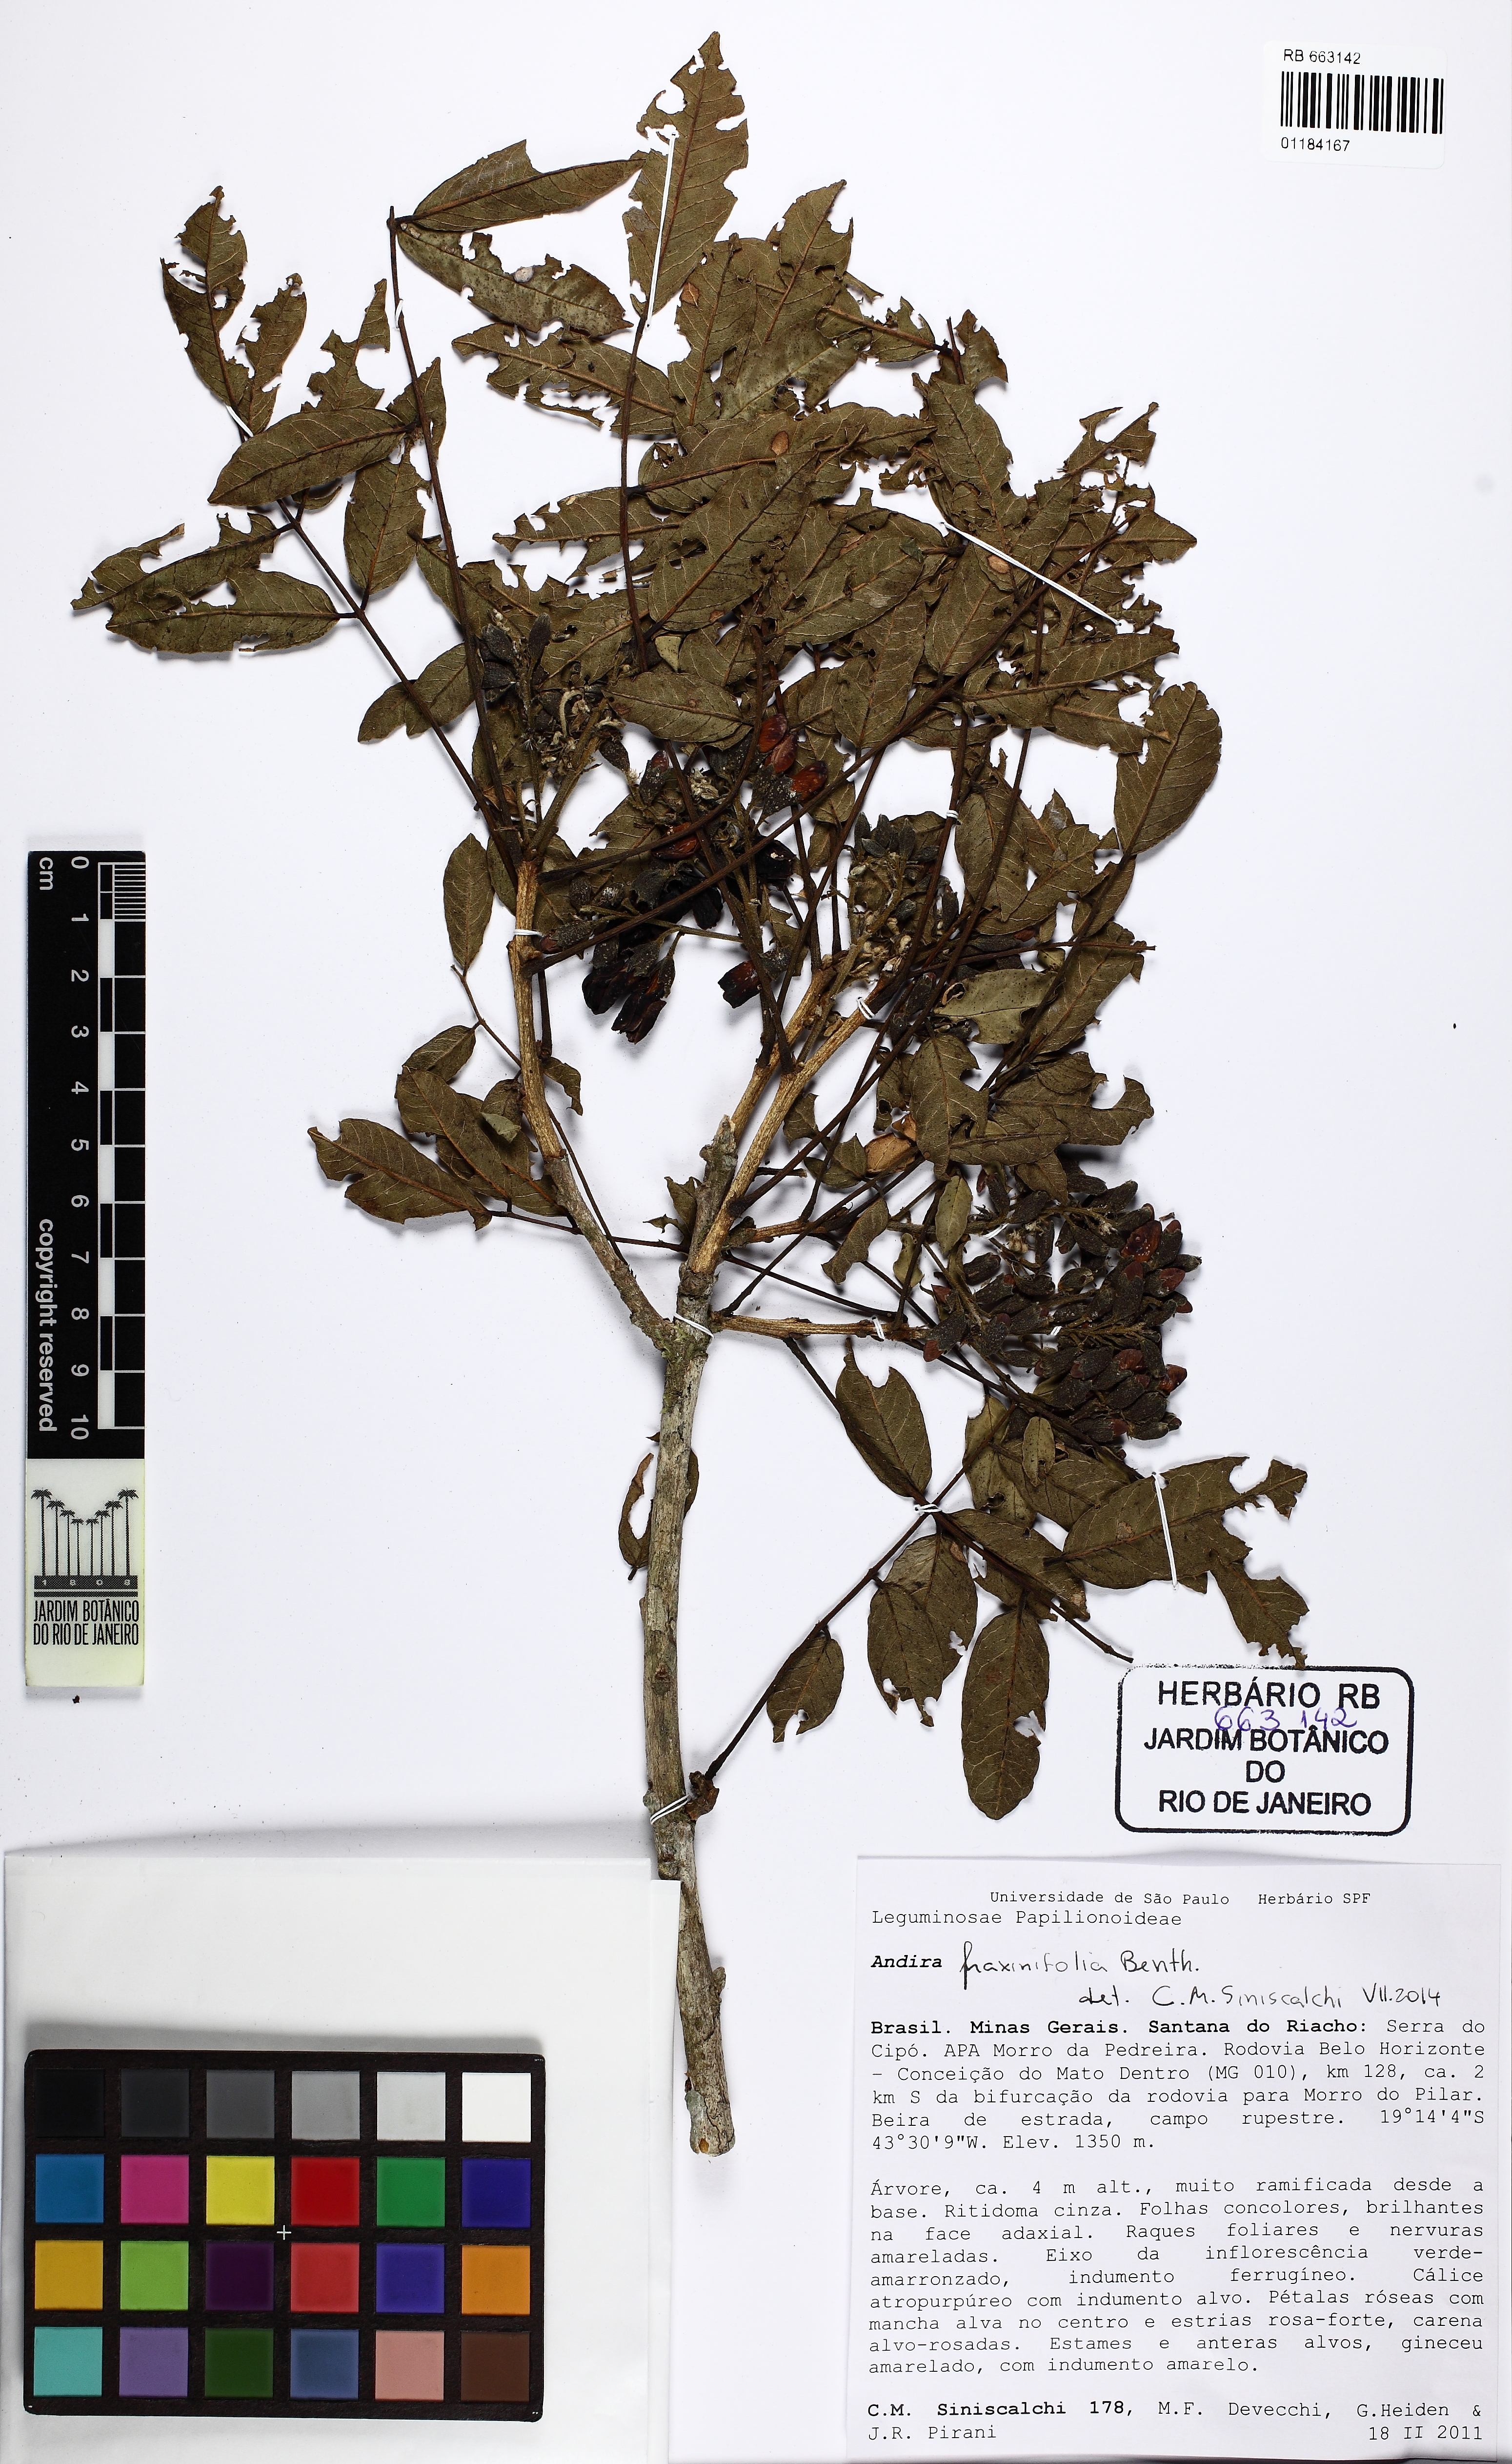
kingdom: Plantae
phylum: Tracheophyta
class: Magnoliopsida
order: Fabales
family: Fabaceae
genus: Andira
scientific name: Andira fraxinifolia
